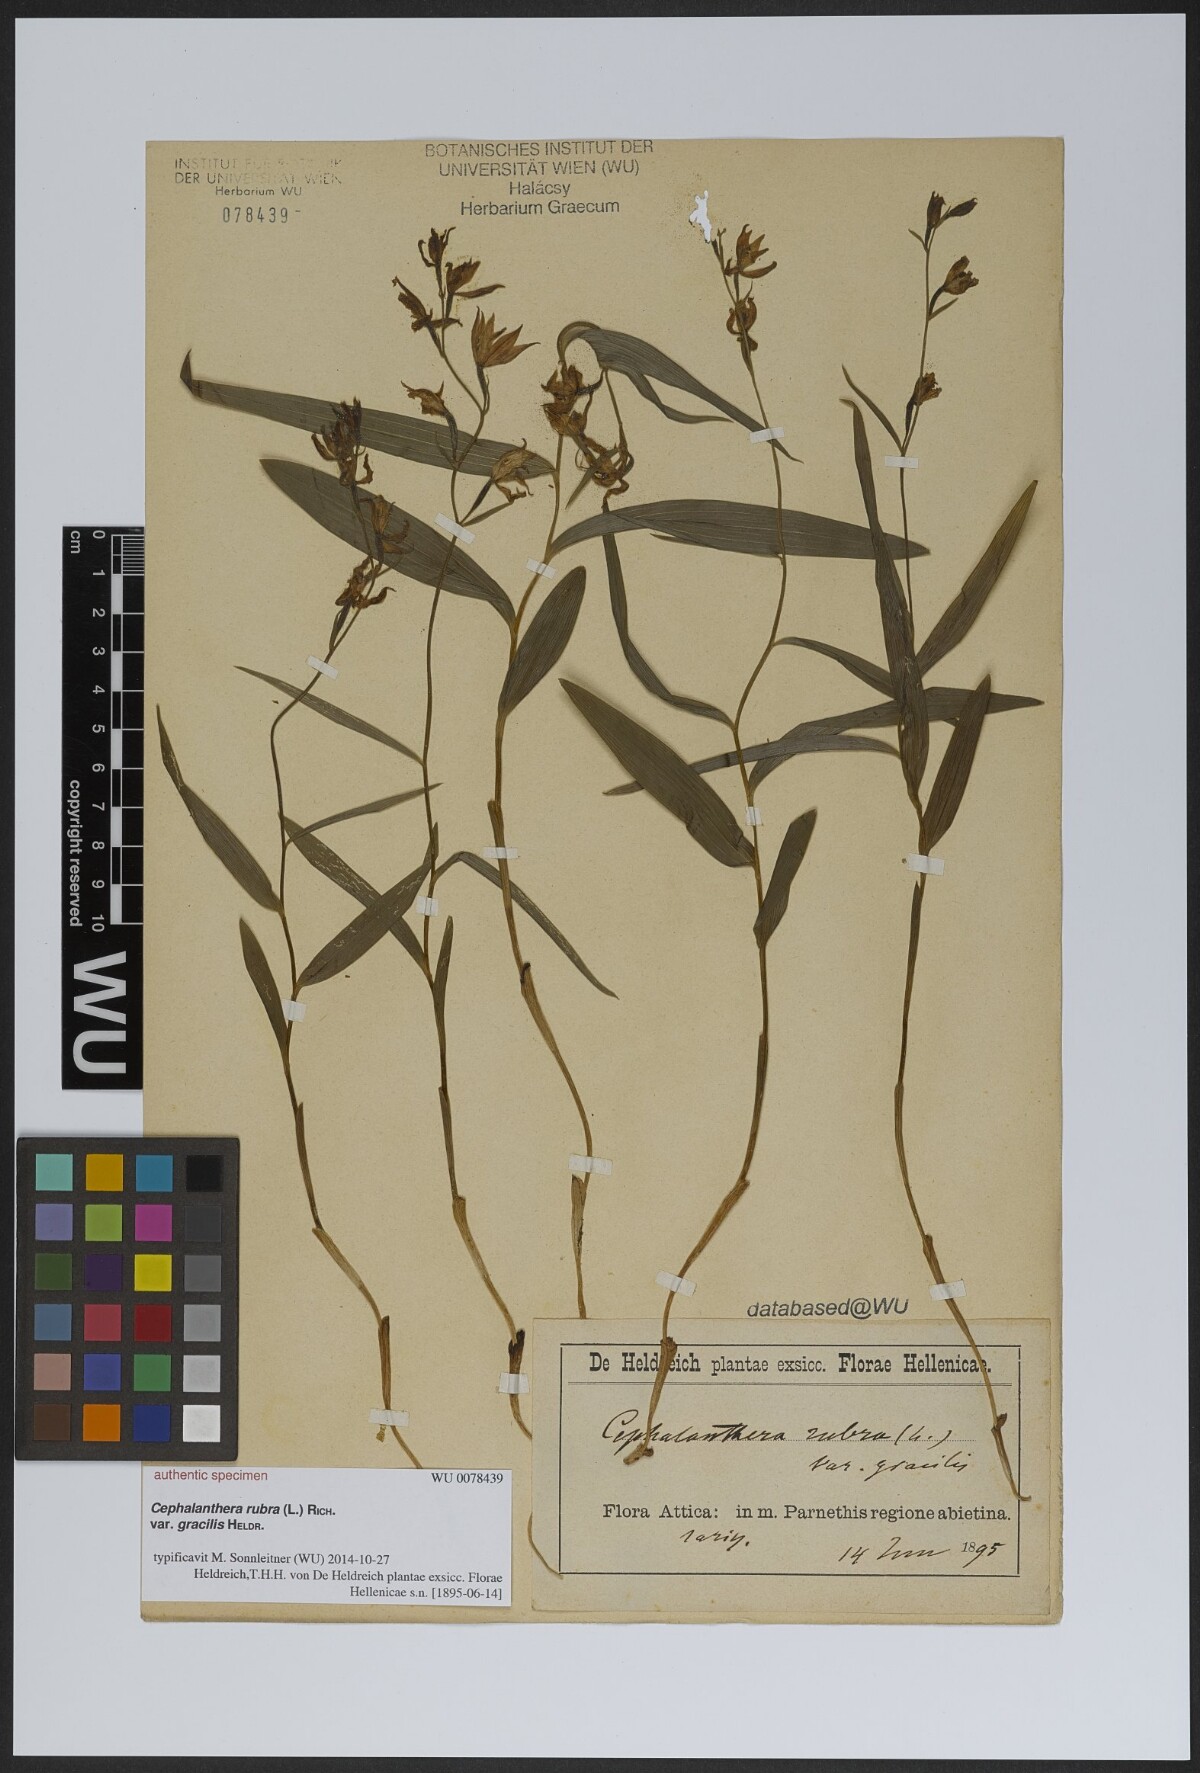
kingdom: Plantae
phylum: Tracheophyta
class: Liliopsida
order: Asparagales
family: Orchidaceae
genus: Cephalanthera
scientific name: Cephalanthera rubra
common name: Red helleborine
